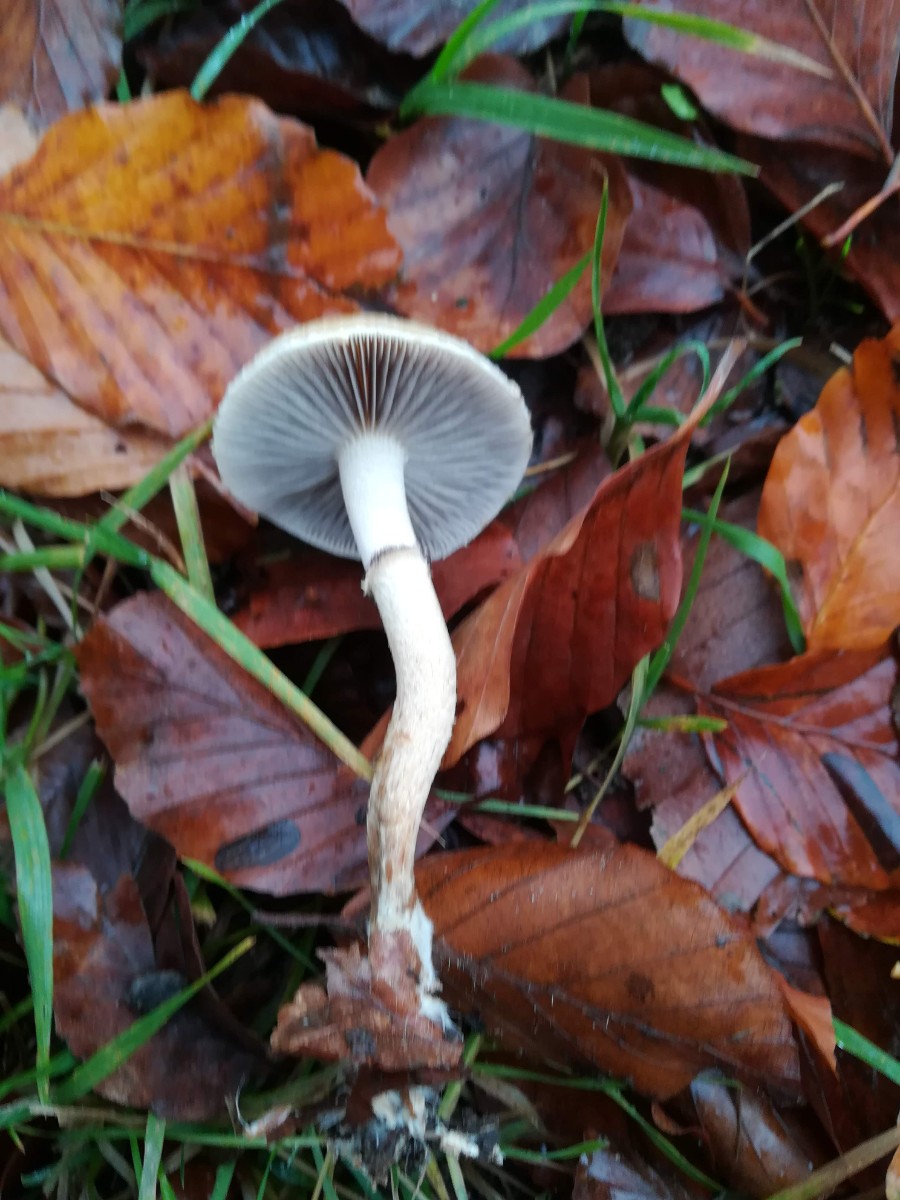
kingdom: Fungi
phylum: Basidiomycota
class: Agaricomycetes
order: Agaricales
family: Strophariaceae
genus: Leratiomyces
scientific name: Leratiomyces squamosus
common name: skællet bredblad
